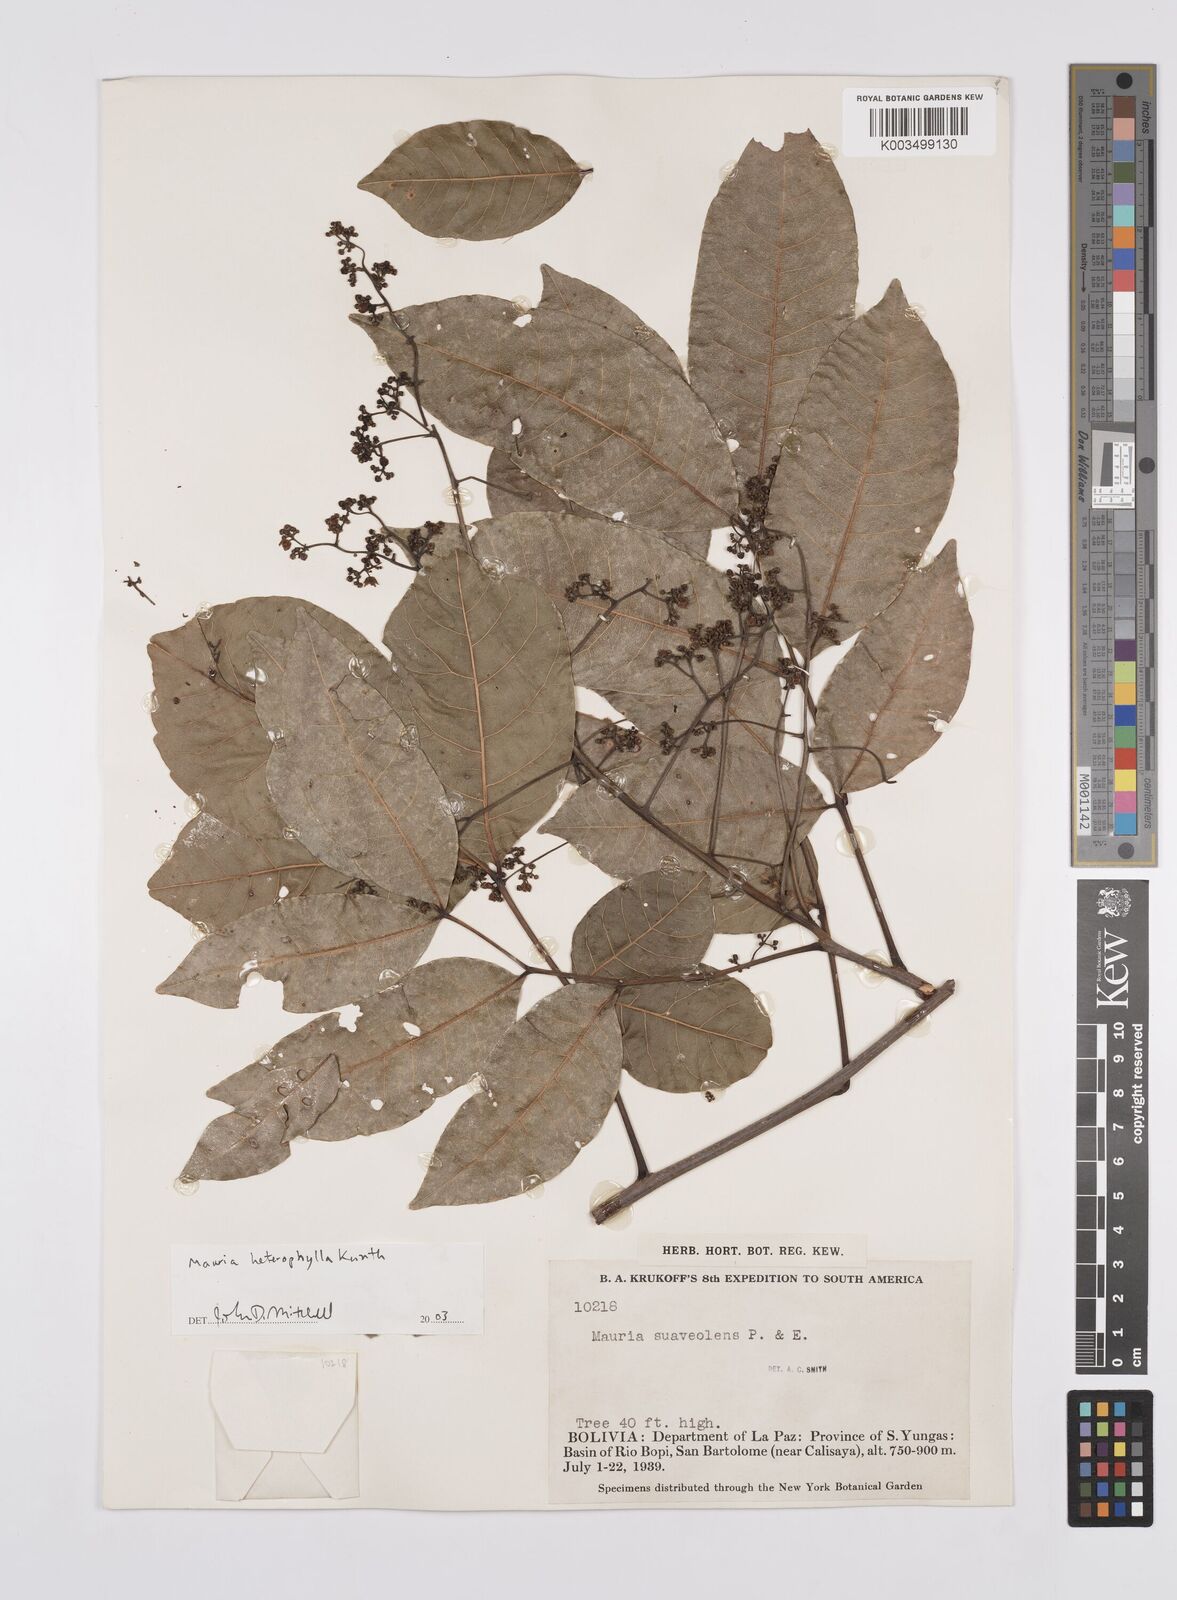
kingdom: Plantae
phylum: Tracheophyta
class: Magnoliopsida
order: Sapindales
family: Anacardiaceae
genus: Mauria
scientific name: Mauria heterophylla
